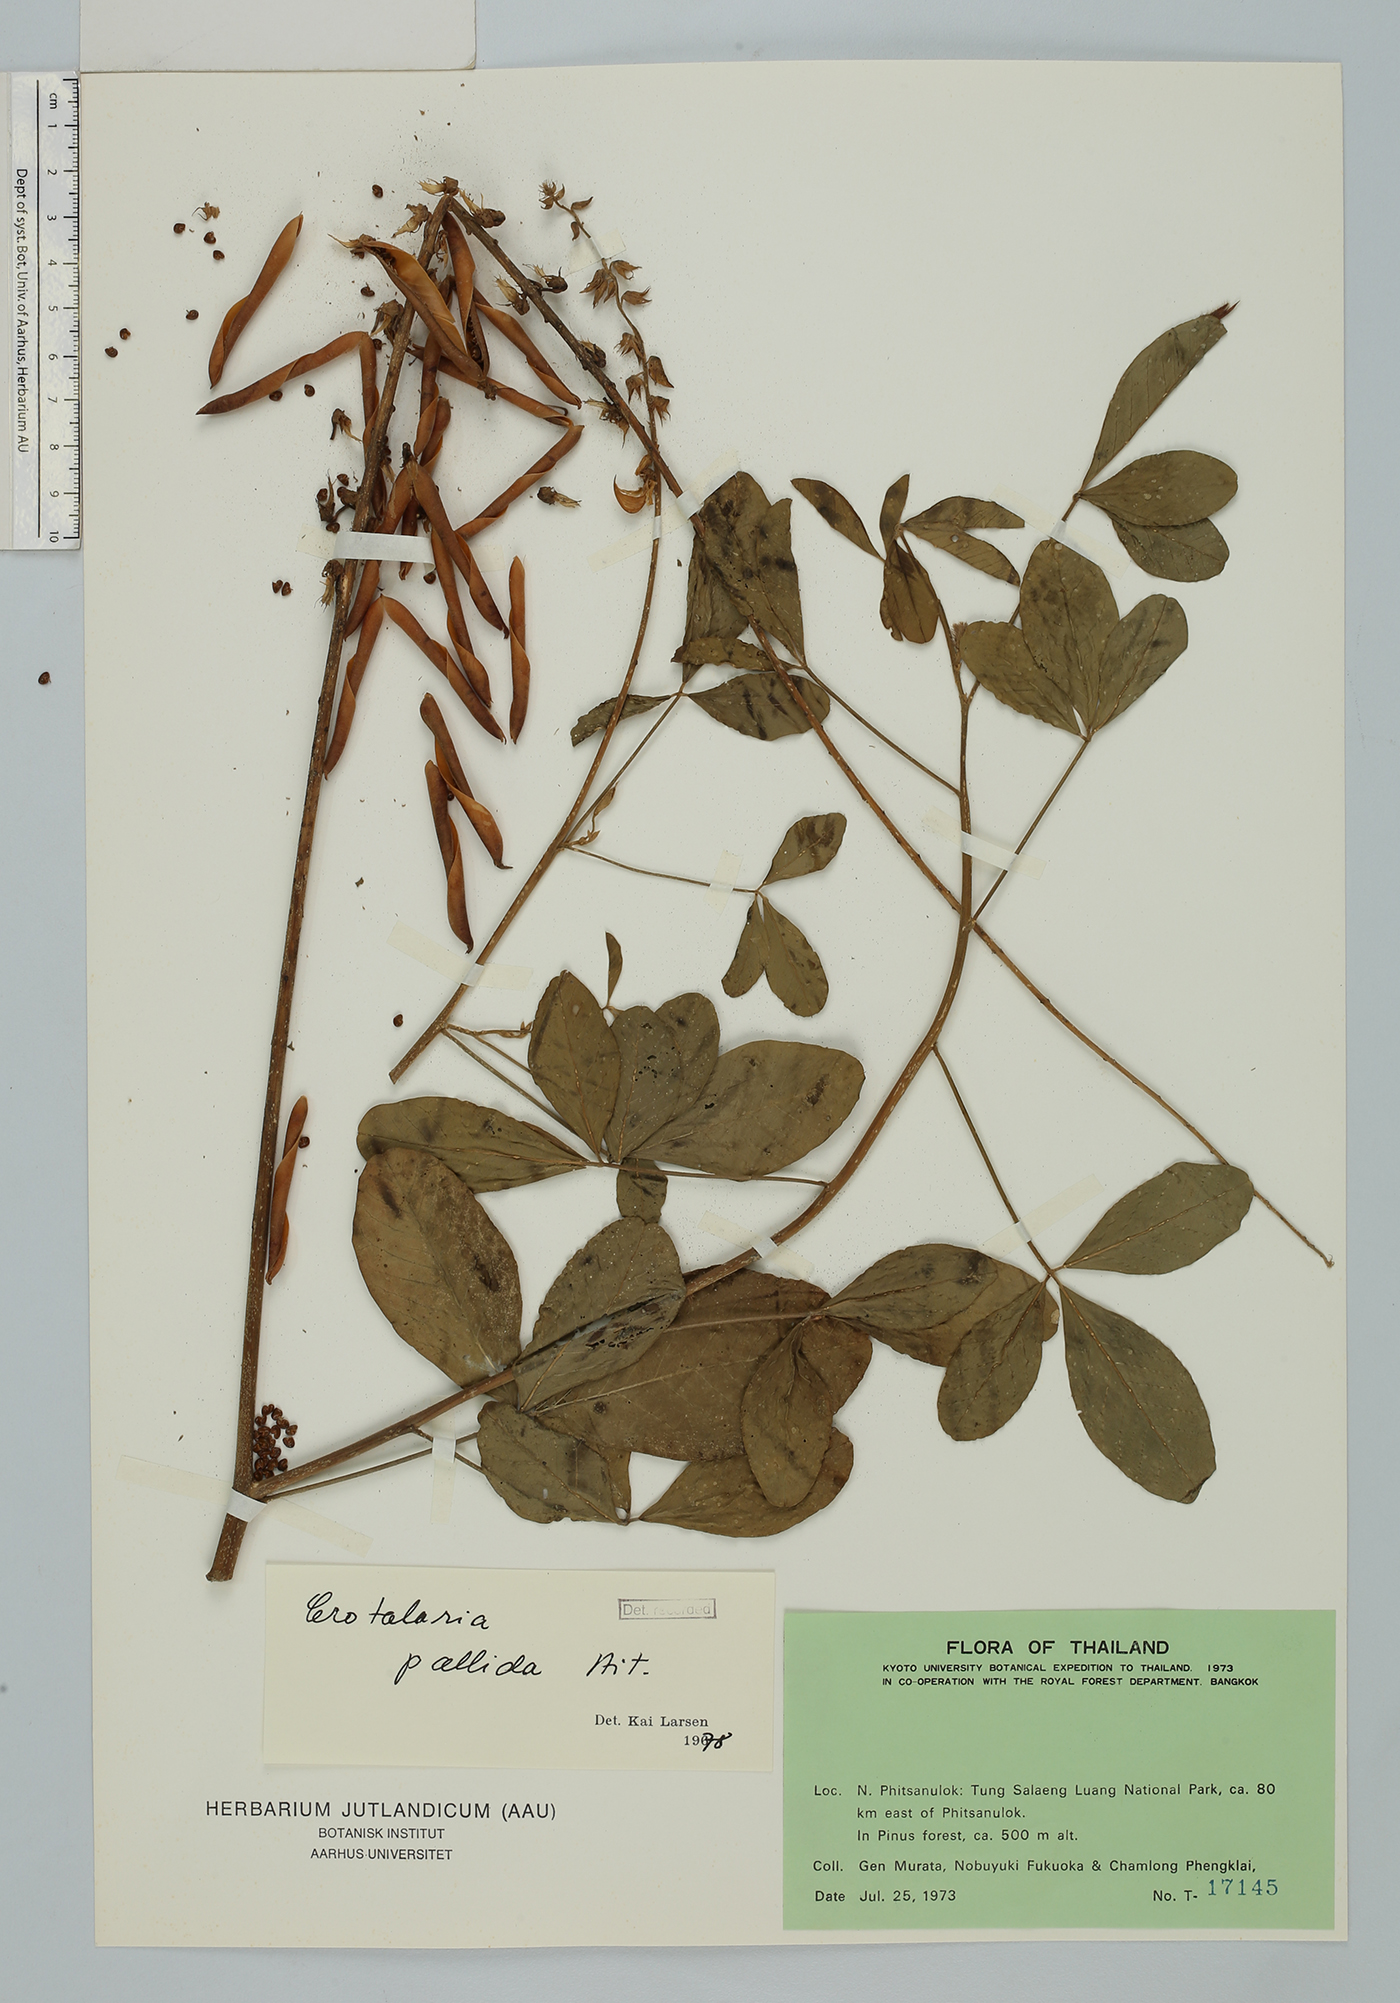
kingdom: Plantae
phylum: Tracheophyta
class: Magnoliopsida
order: Fabales
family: Fabaceae
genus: Crotalaria
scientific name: Crotalaria pallida
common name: Smooth rattlebox
